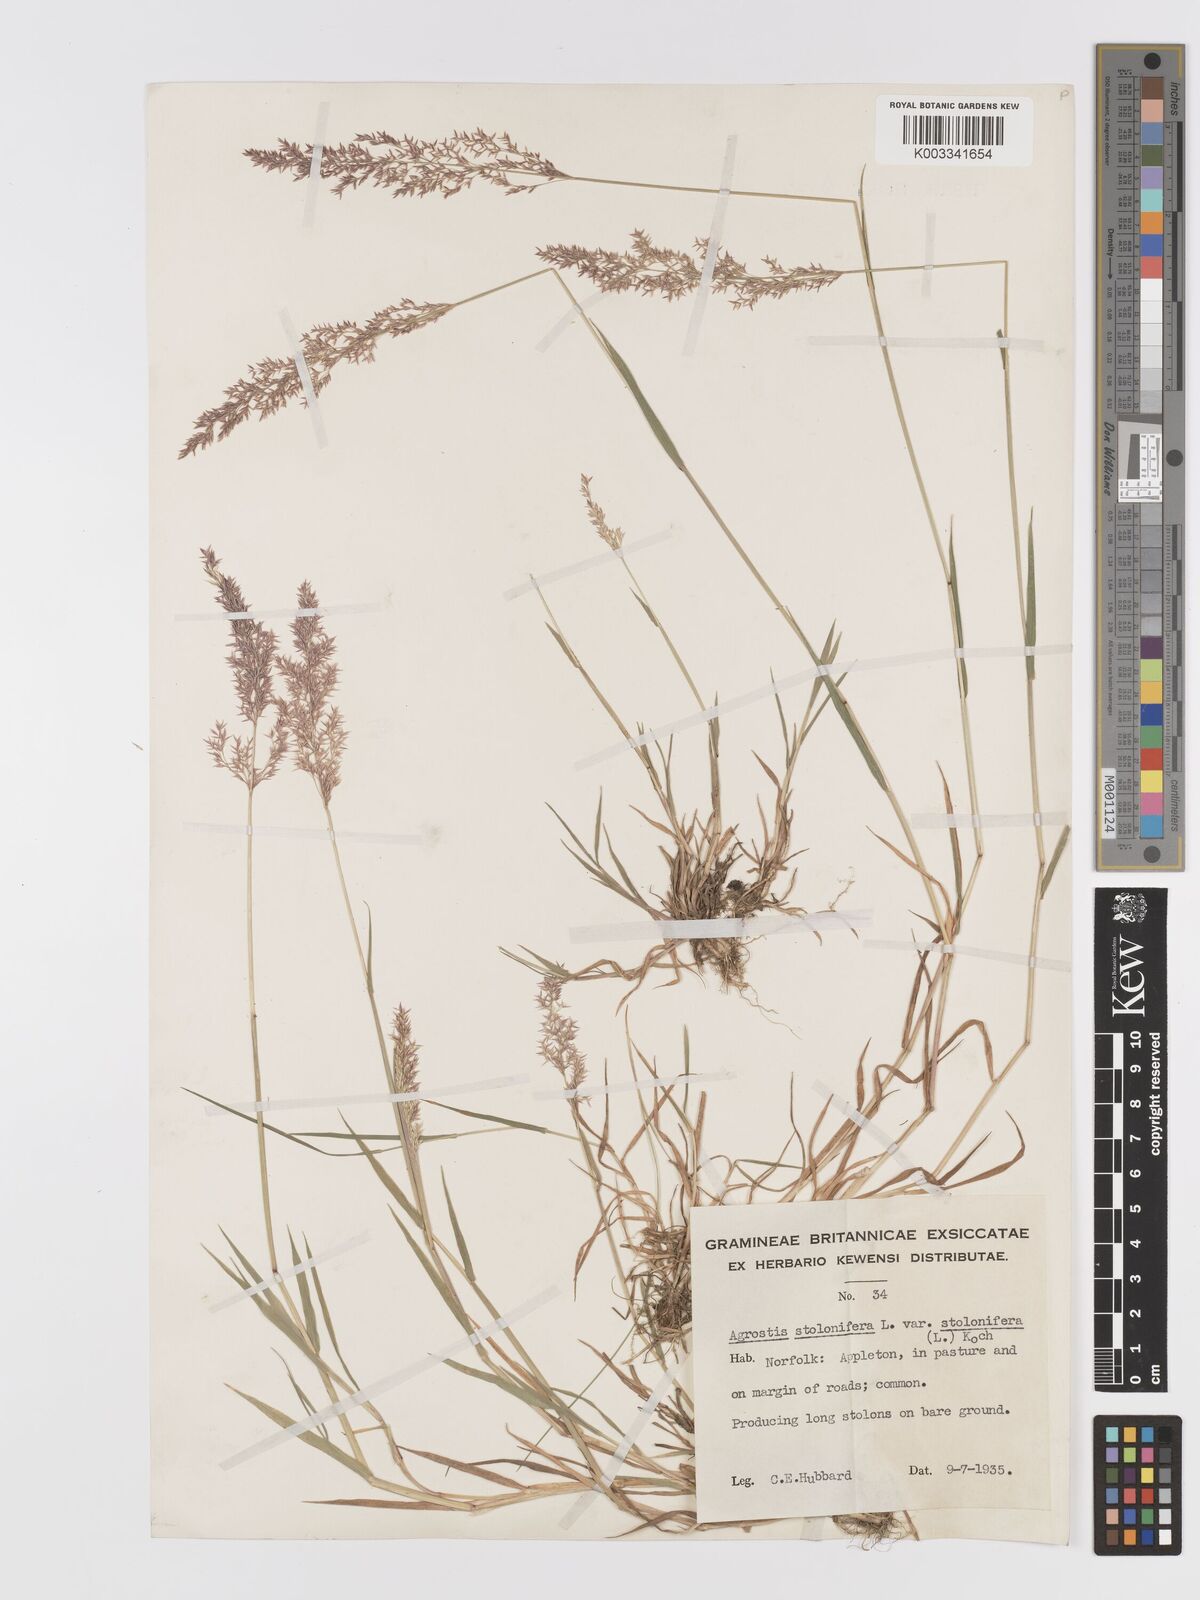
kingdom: Plantae
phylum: Tracheophyta
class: Liliopsida
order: Poales
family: Poaceae
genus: Agrostis
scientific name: Agrostis stolonifera
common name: Creeping bentgrass
